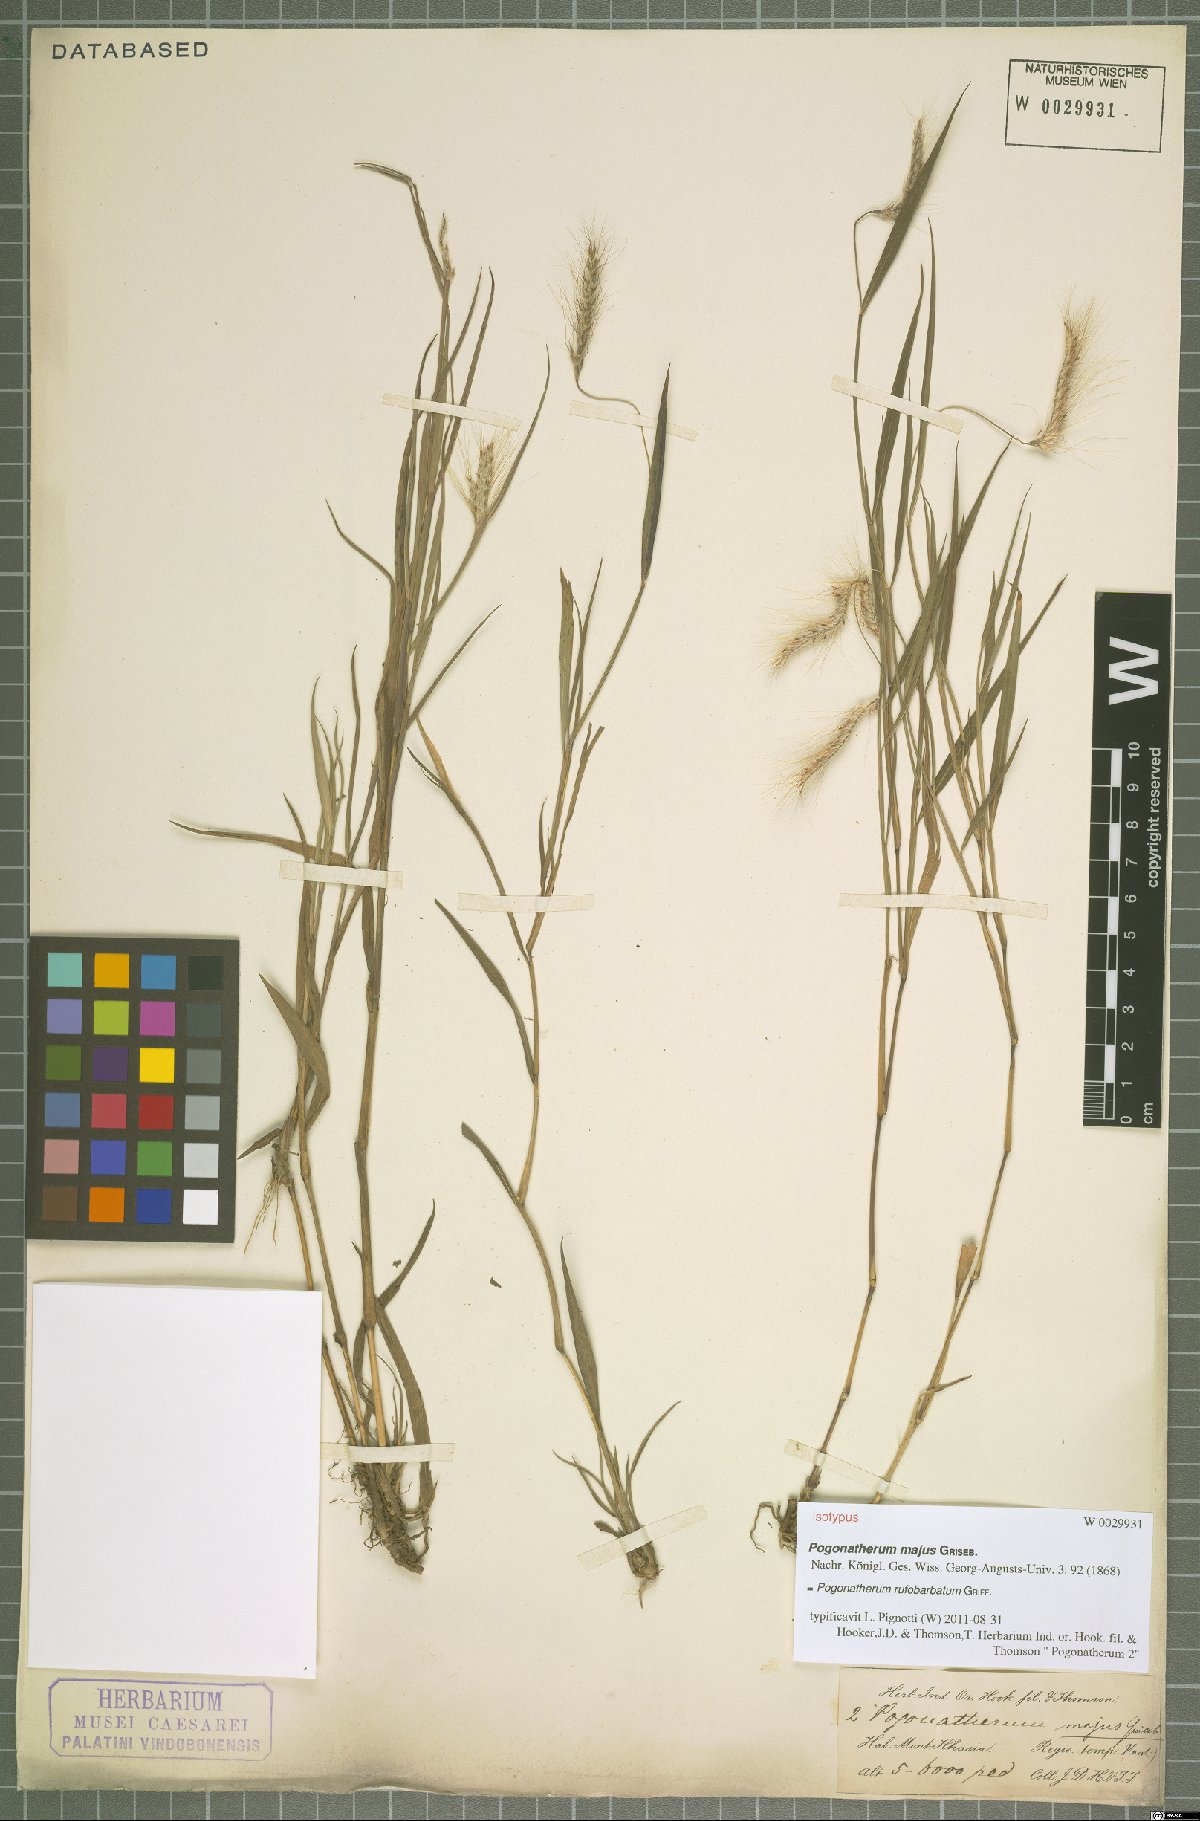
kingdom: Plantae
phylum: Tracheophyta
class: Liliopsida
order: Poales
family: Poaceae
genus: Pogonatherum
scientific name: Pogonatherum rufobarbatum
